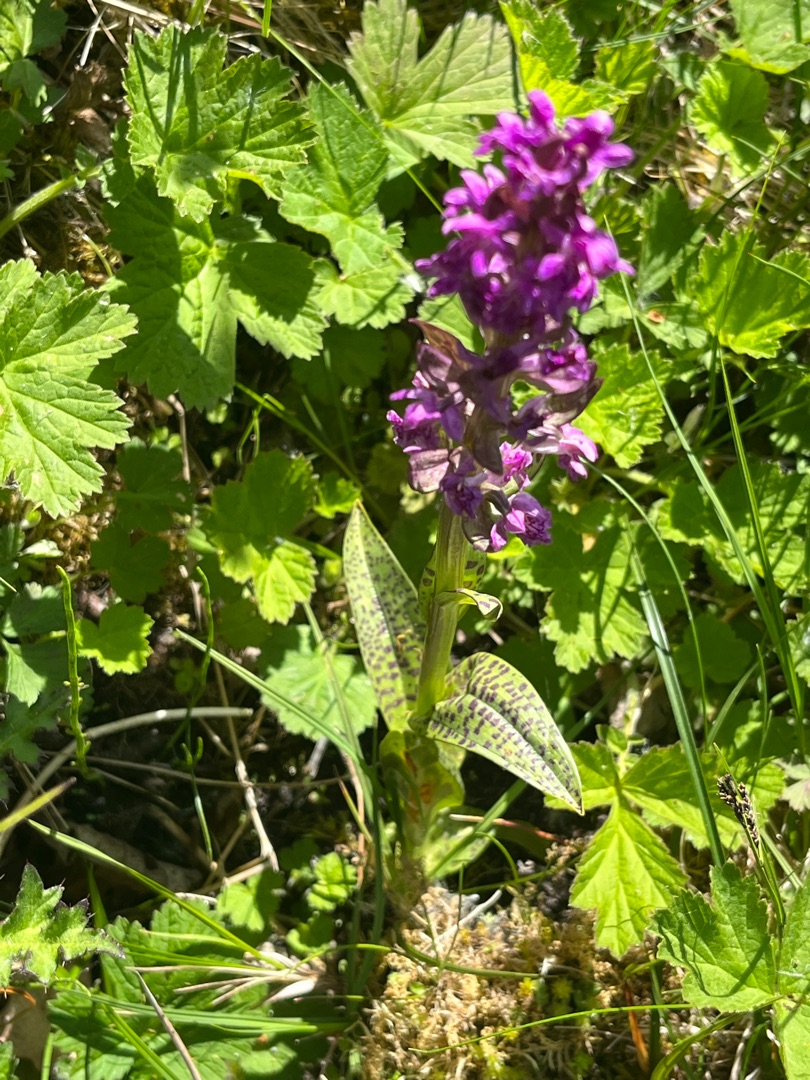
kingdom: Plantae
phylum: Tracheophyta
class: Liliopsida
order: Asparagales
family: Orchidaceae
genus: Dactylorhiza
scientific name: Dactylorhiza majalis
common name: Maj-gøgeurt
